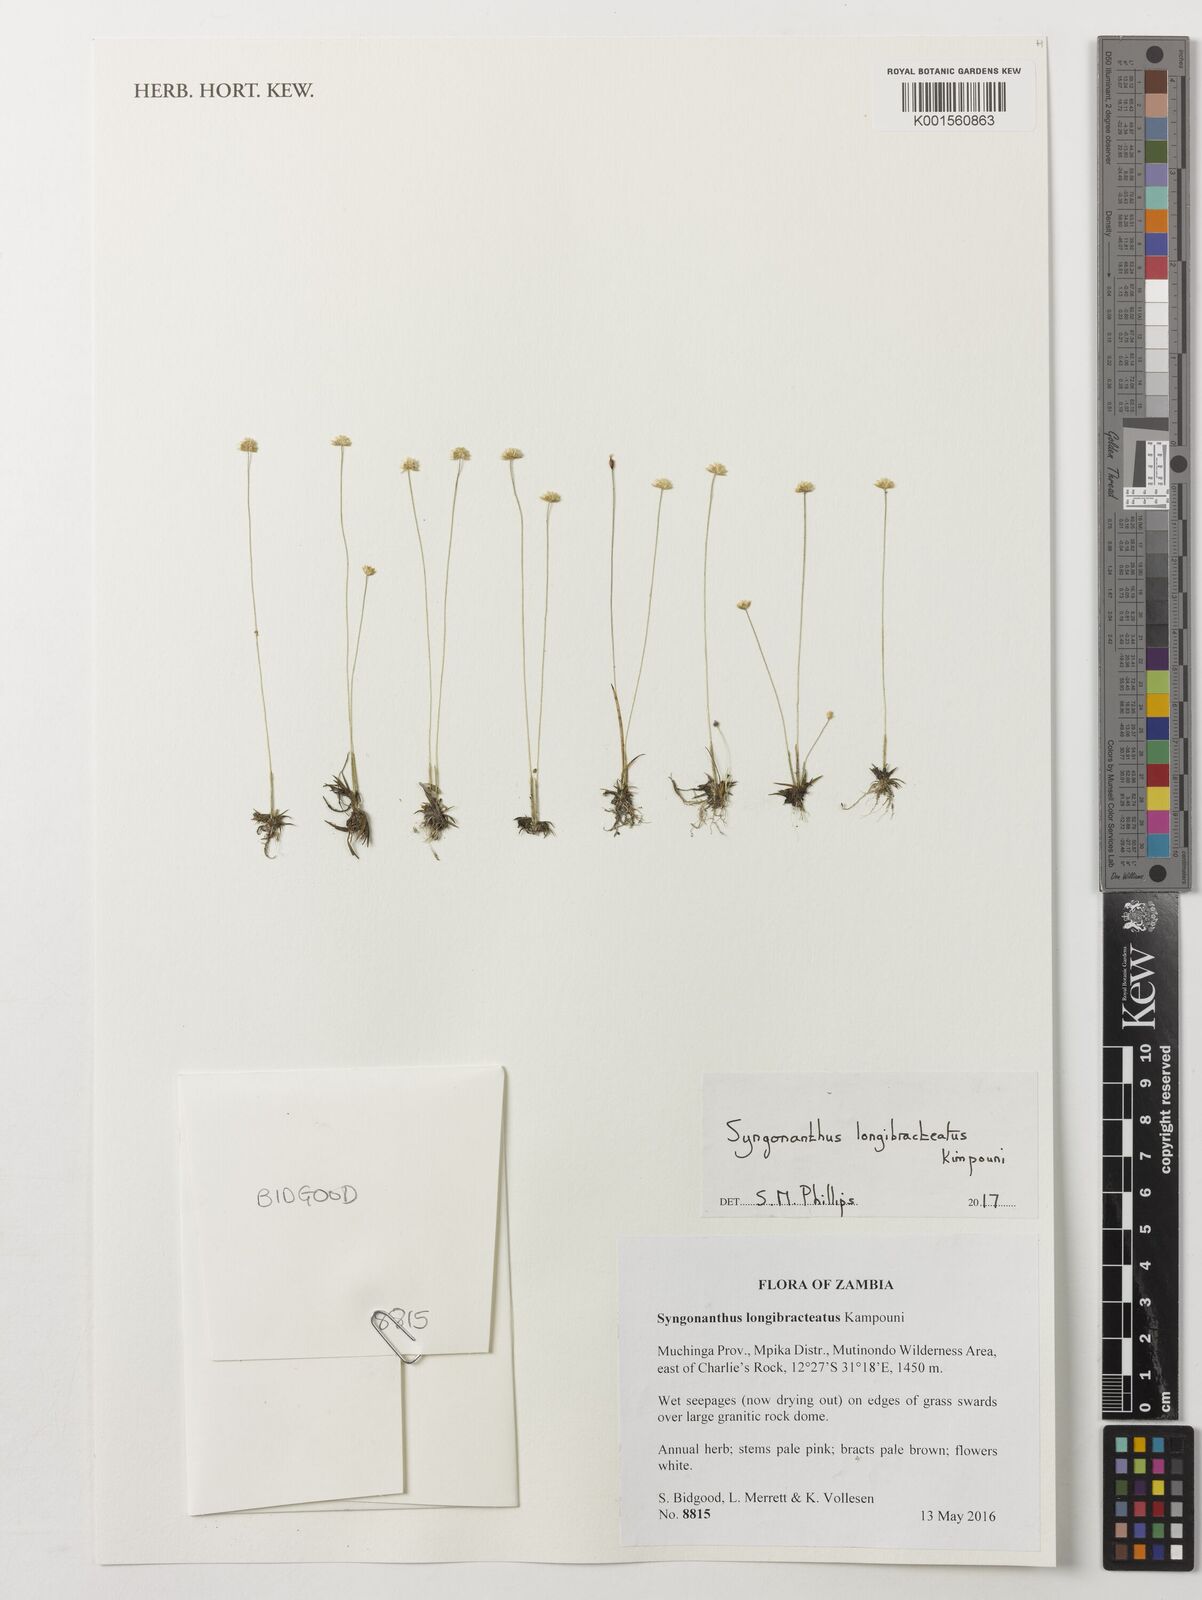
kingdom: Plantae
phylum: Tracheophyta
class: Liliopsida
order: Poales
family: Eriocaulaceae
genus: Syngonanthus
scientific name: Syngonanthus longibracteatus
